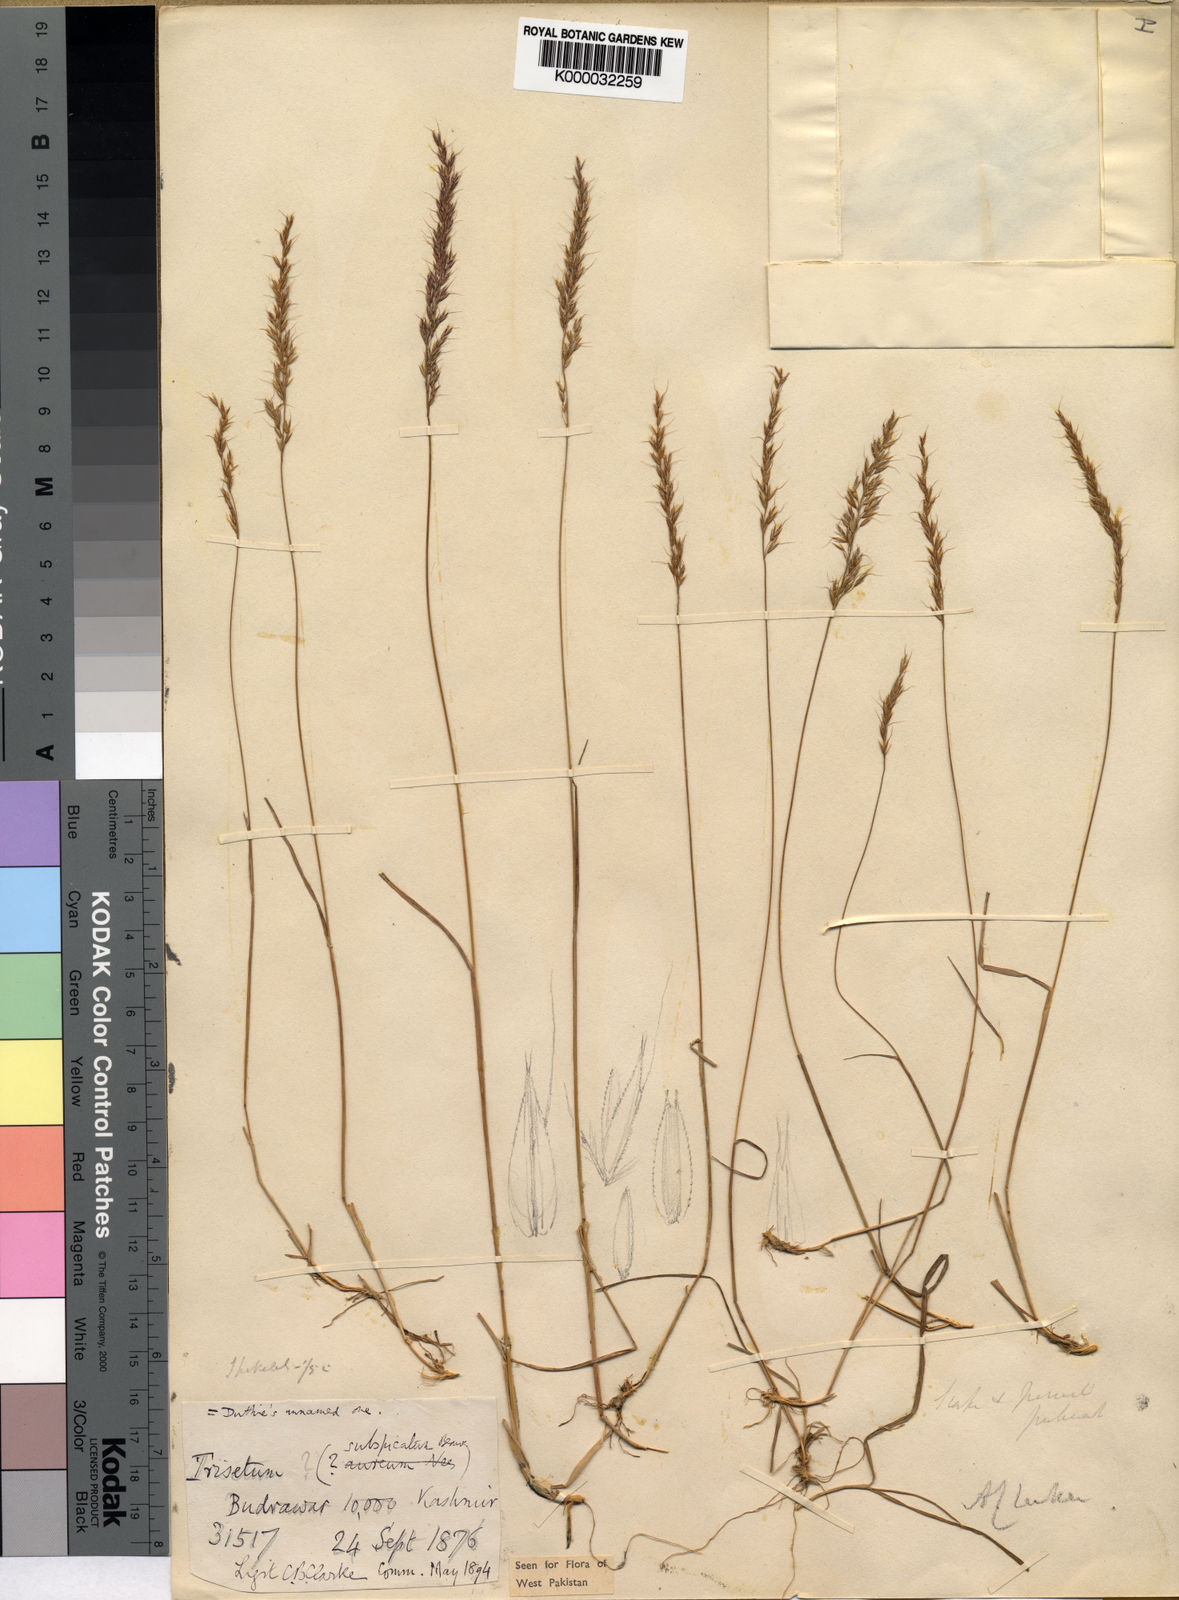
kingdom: Plantae
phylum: Tracheophyta
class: Liliopsida
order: Poales
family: Poaceae
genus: Trisetum
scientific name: Trisetum clarkei
